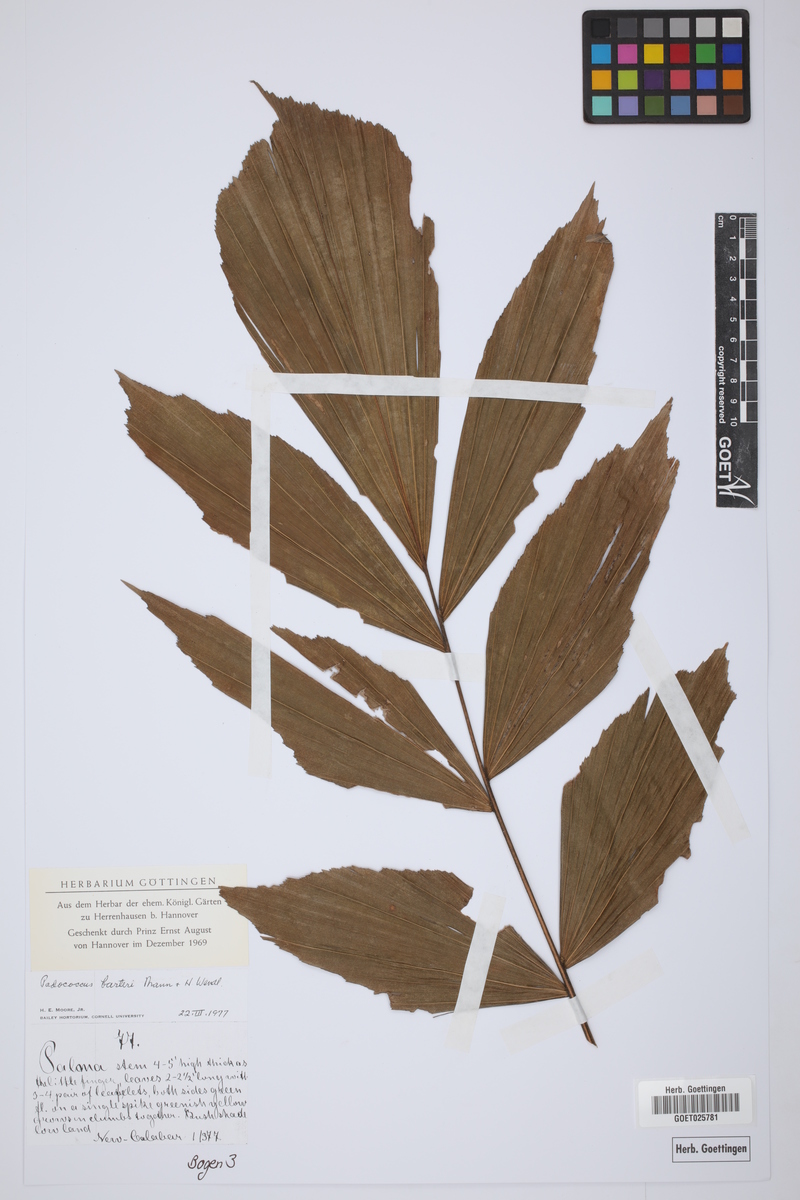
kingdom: Plantae
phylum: Tracheophyta
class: Liliopsida
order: Arecales
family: Arecaceae
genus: Podococcus
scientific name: Podococcus barteri
